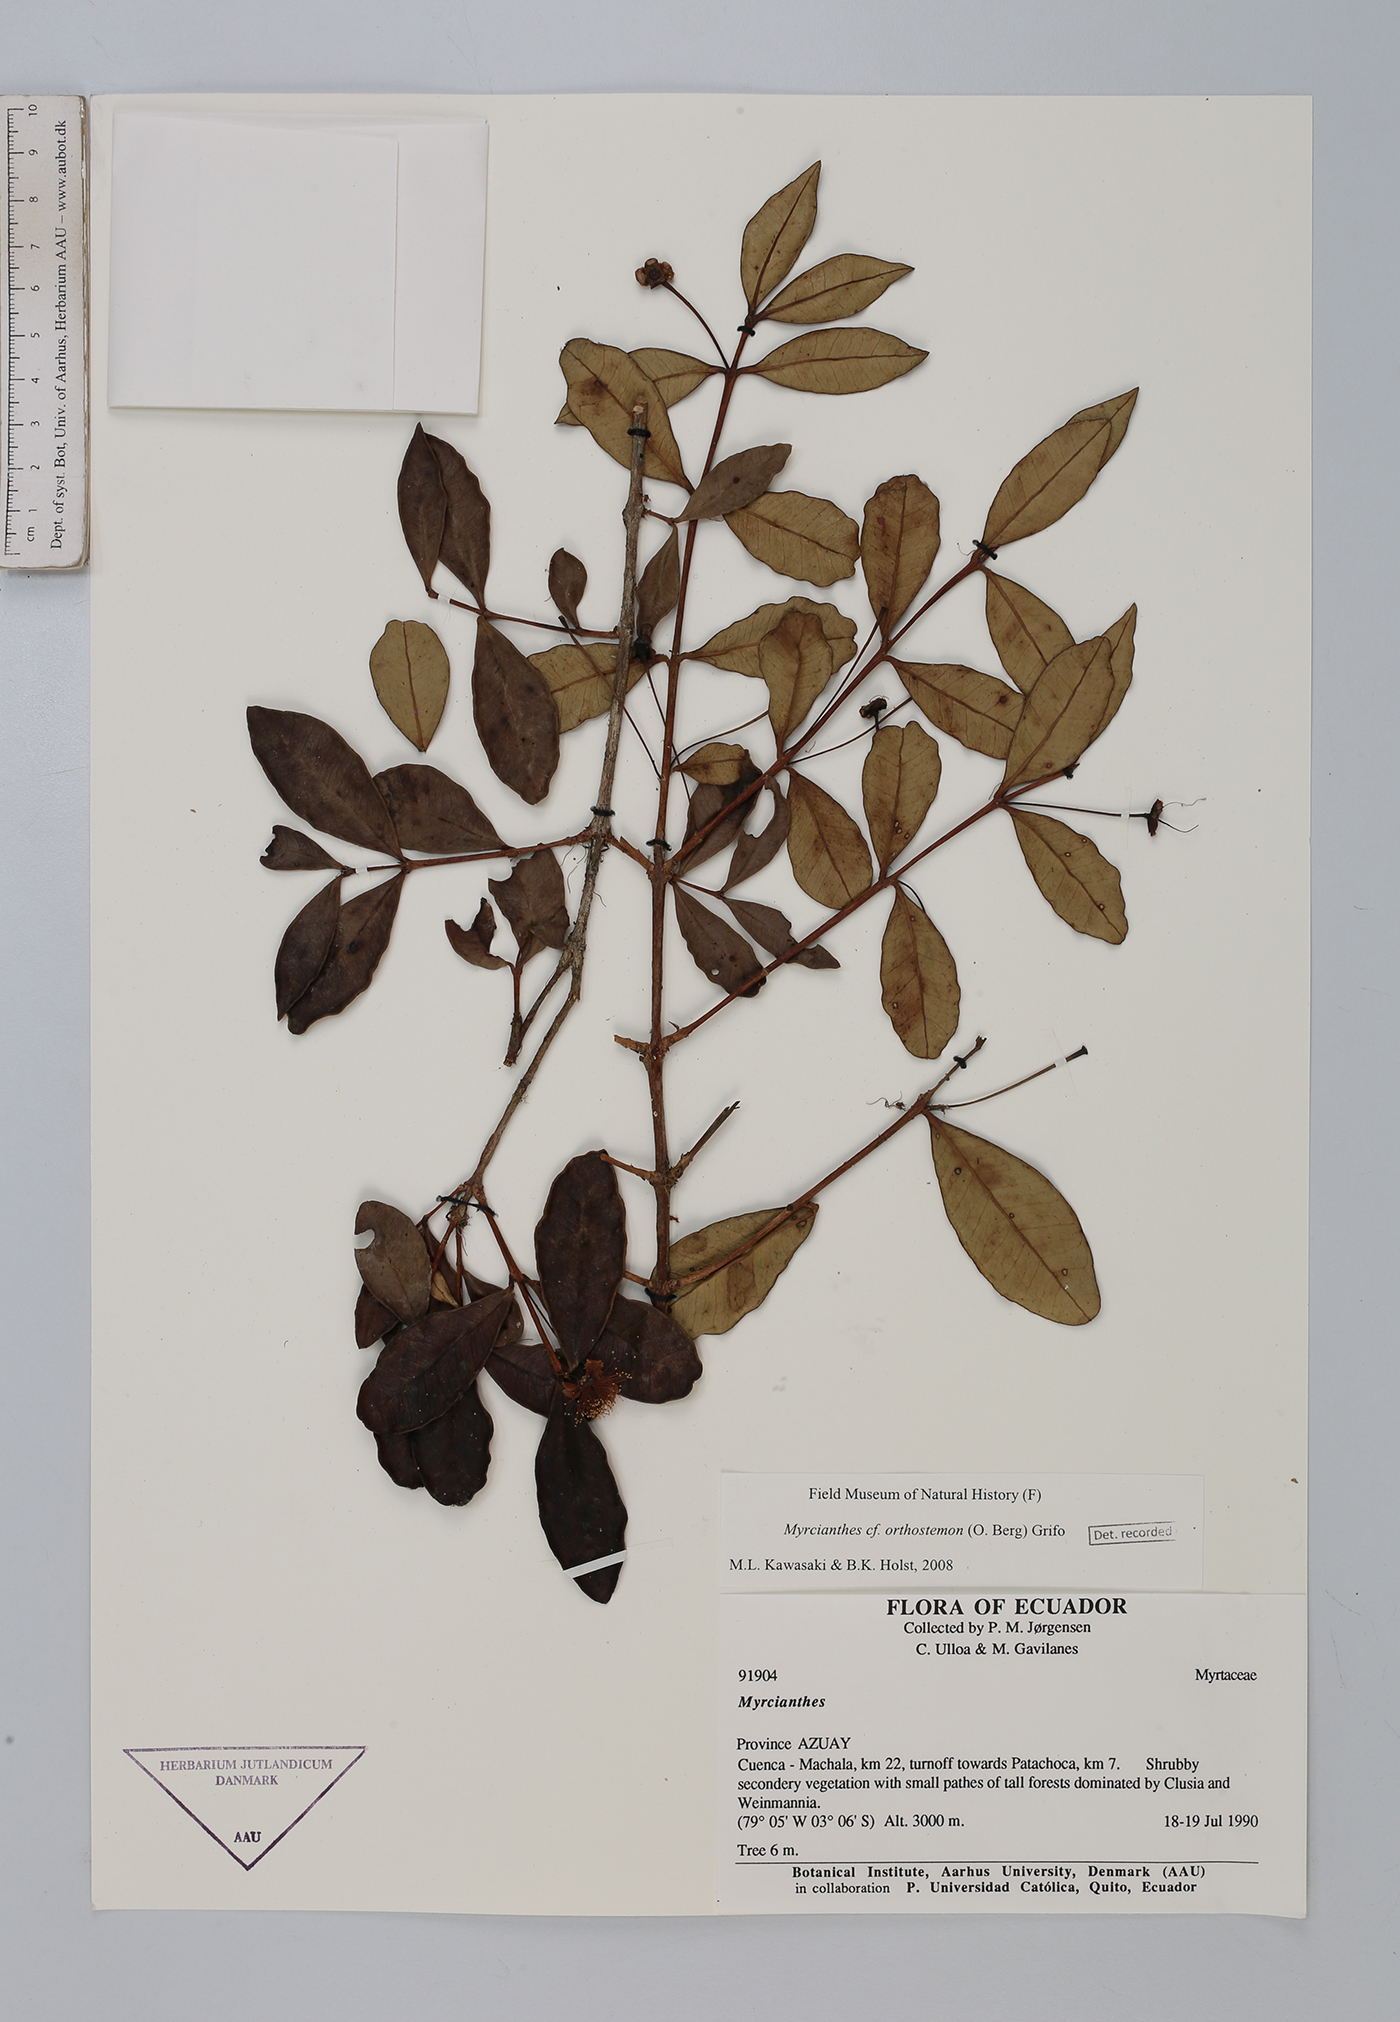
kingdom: Plantae
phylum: Tracheophyta
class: Magnoliopsida
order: Myrtales
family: Myrtaceae
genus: Myrcianthes
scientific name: Myrcianthes orthostemon
